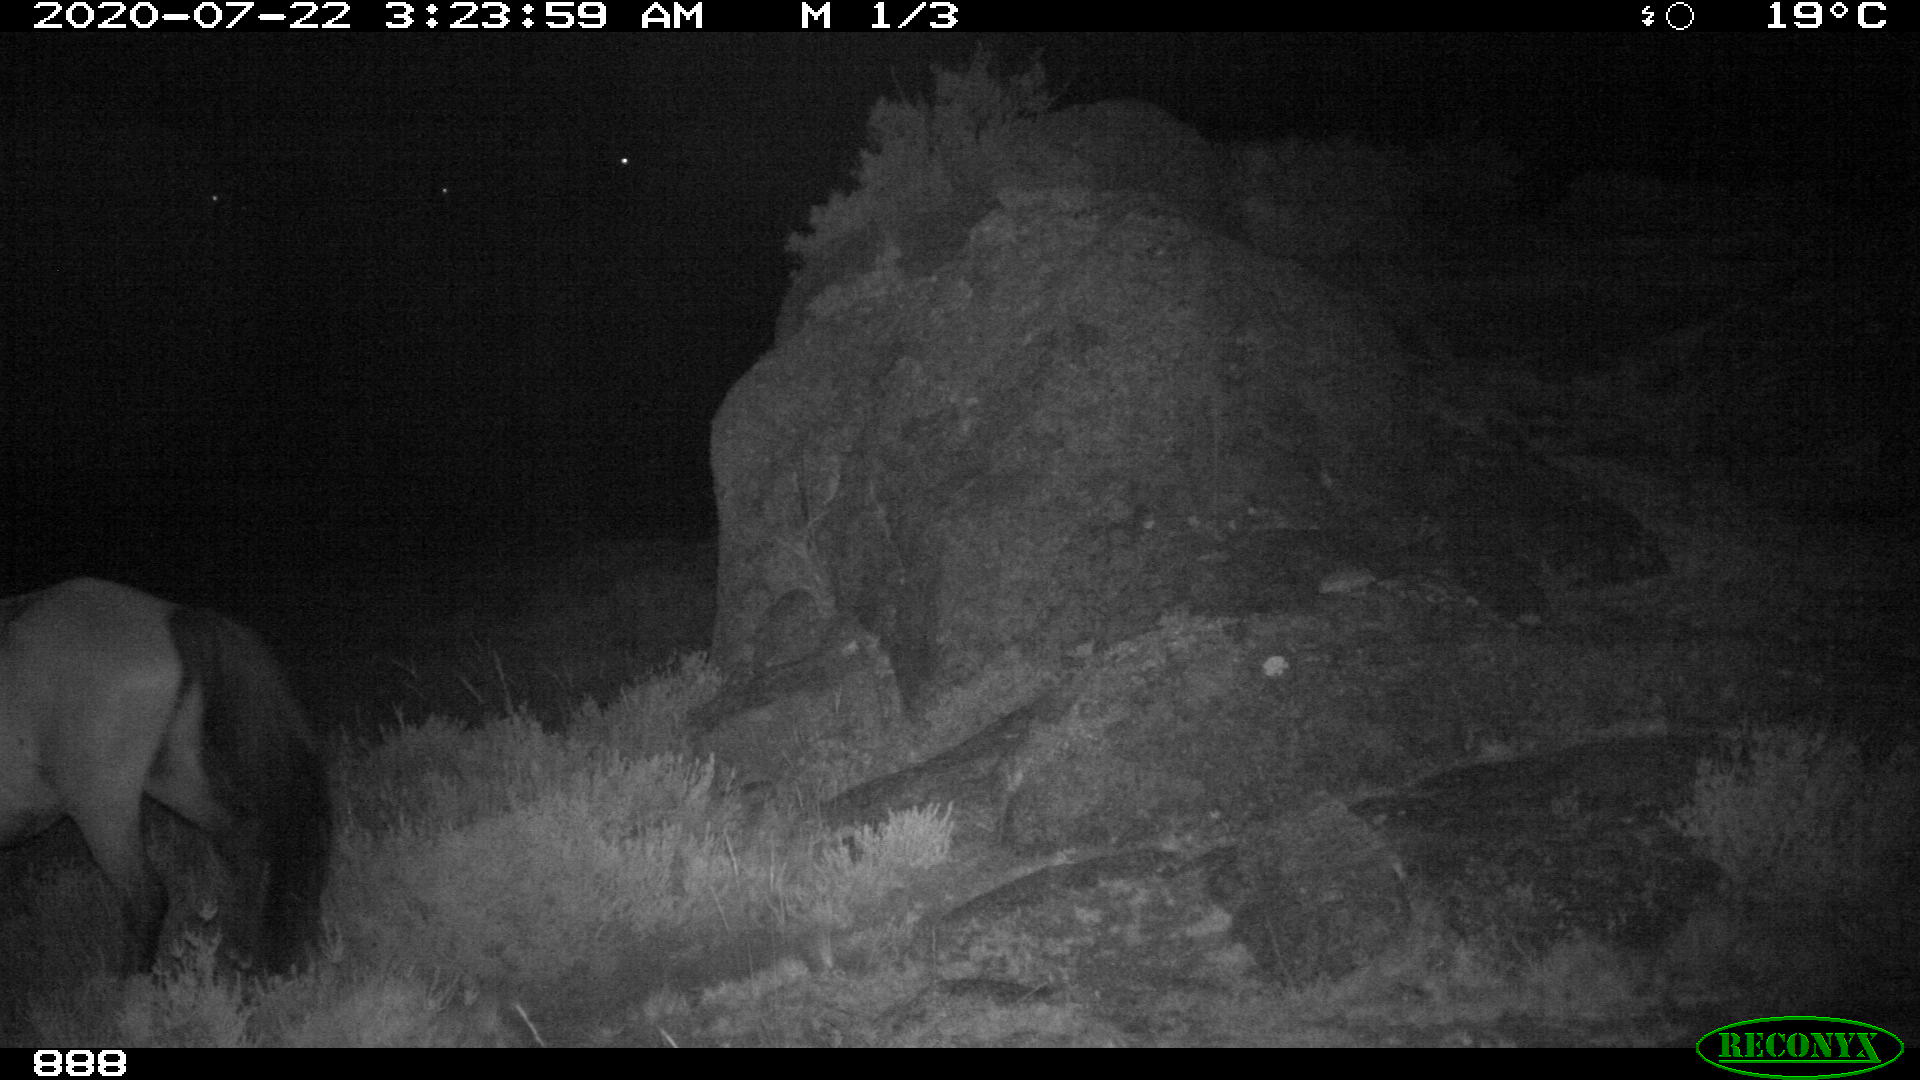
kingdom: Animalia
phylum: Chordata
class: Mammalia
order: Perissodactyla
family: Equidae
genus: Equus
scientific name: Equus caballus
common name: Horse
